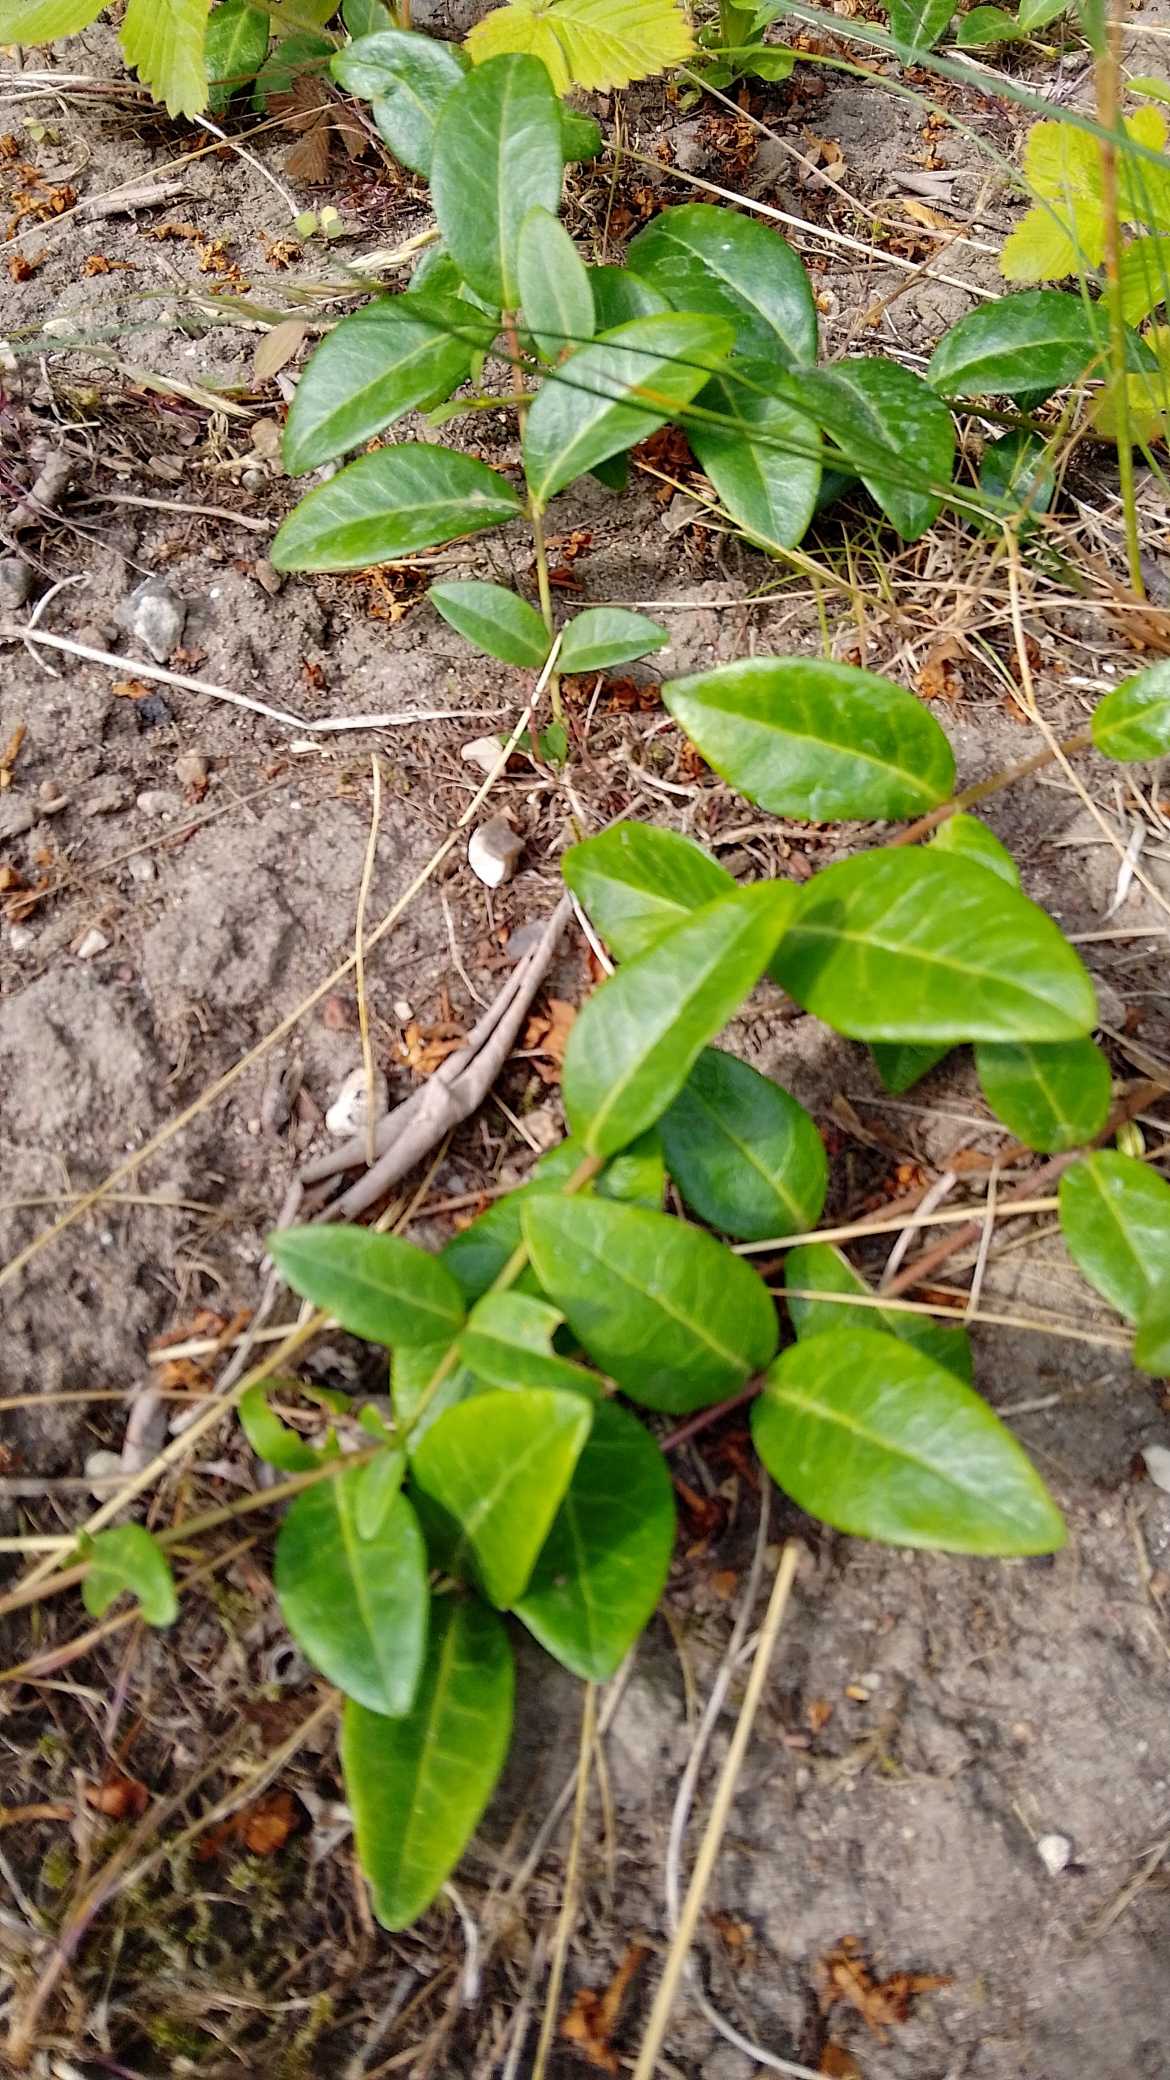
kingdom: Plantae
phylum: Tracheophyta
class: Magnoliopsida
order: Gentianales
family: Apocynaceae
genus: Vinca
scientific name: Vinca minor
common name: Liden singrøn
